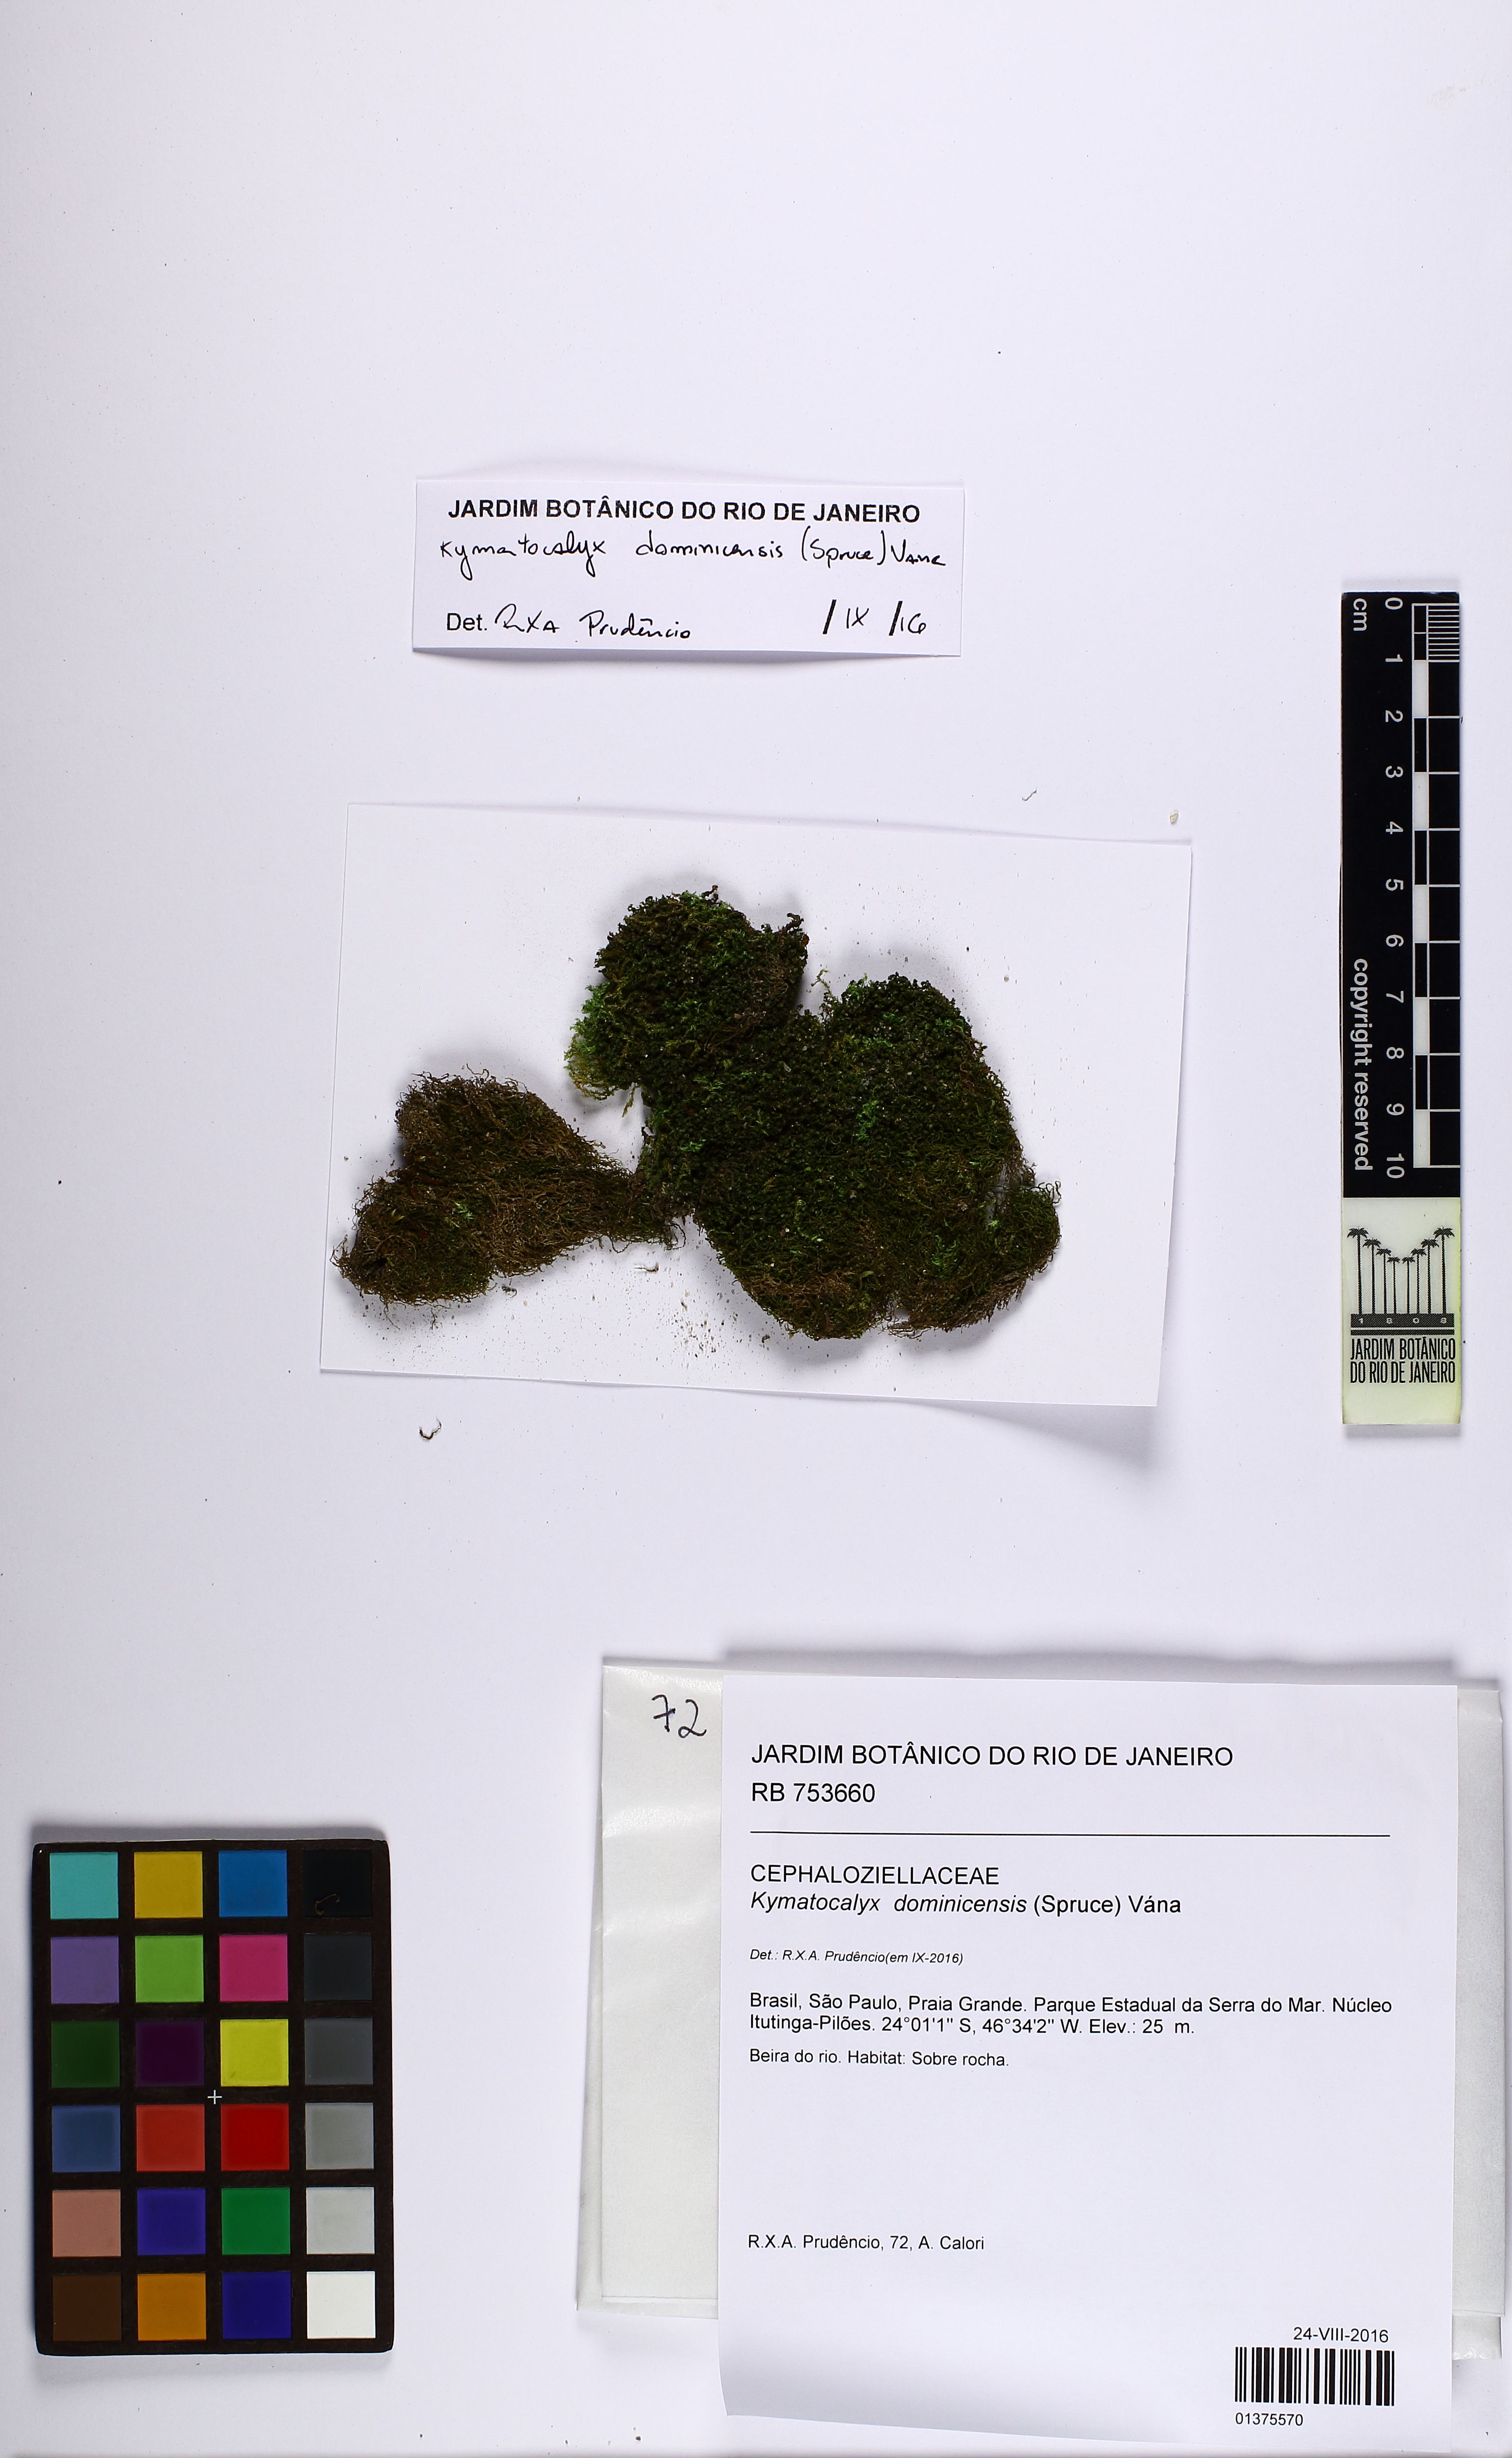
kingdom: Plantae
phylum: Marchantiophyta
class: Jungermanniopsida
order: Jungermanniales
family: Cephaloziellaceae
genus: Kymatocalyx
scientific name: Kymatocalyx dominicensis
